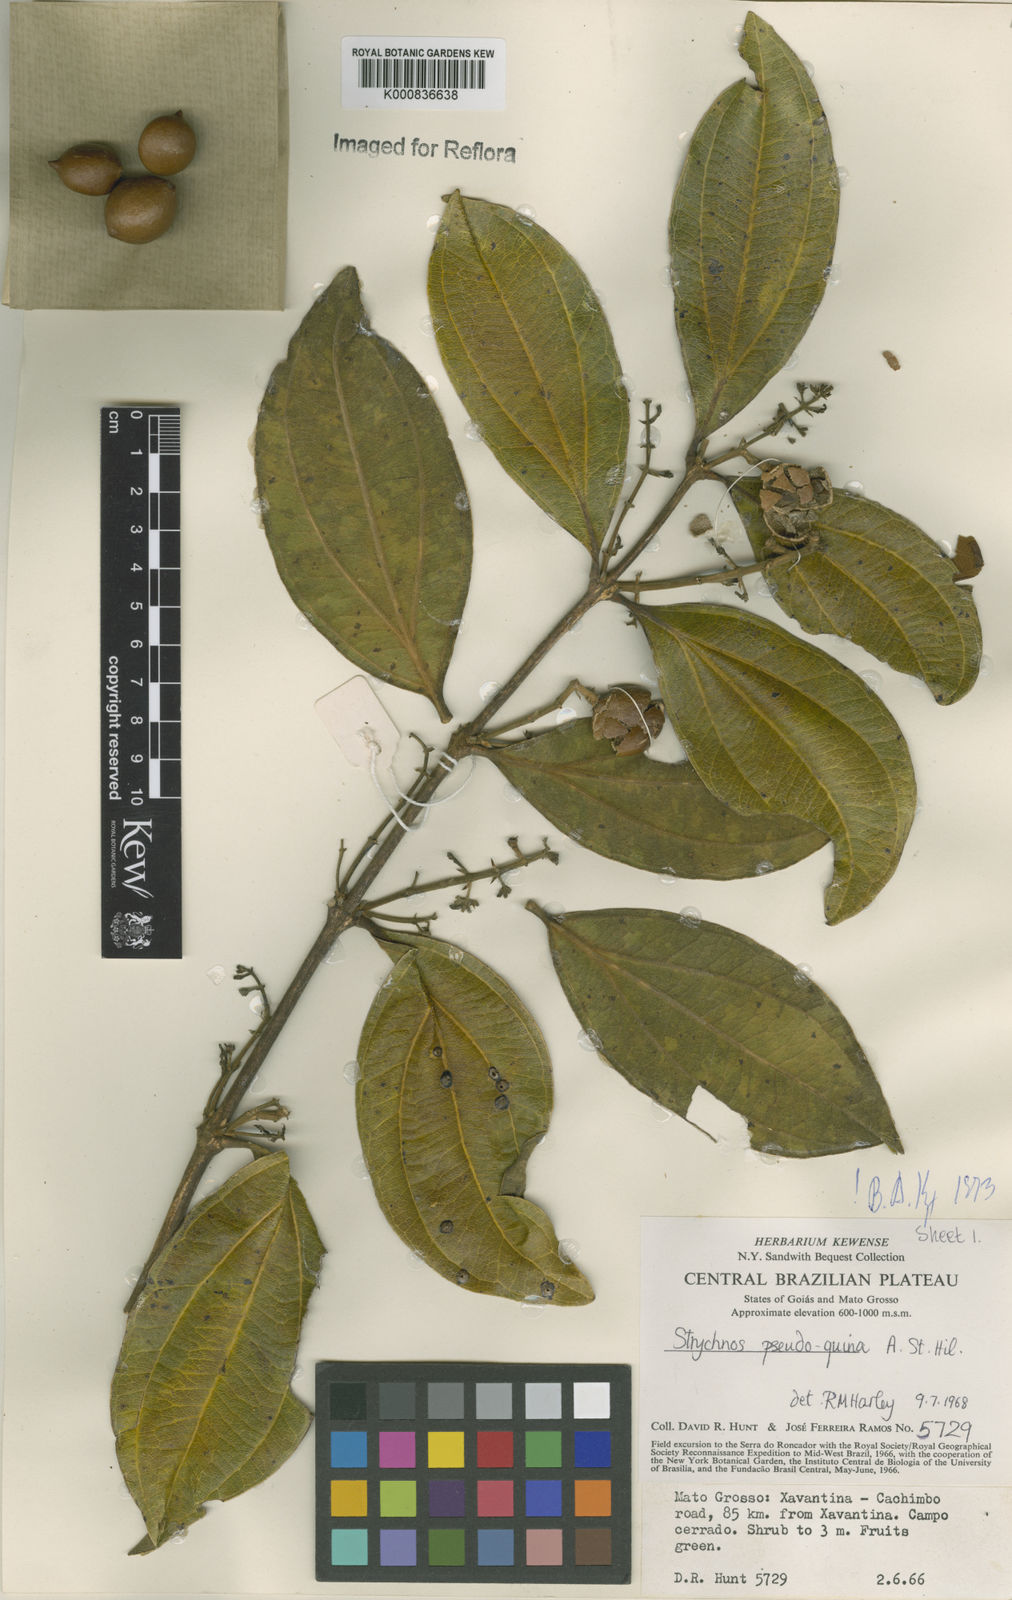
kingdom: Plantae
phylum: Tracheophyta
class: Magnoliopsida
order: Gentianales
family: Loganiaceae
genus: Strychnos
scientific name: Strychnos pseudoquina
